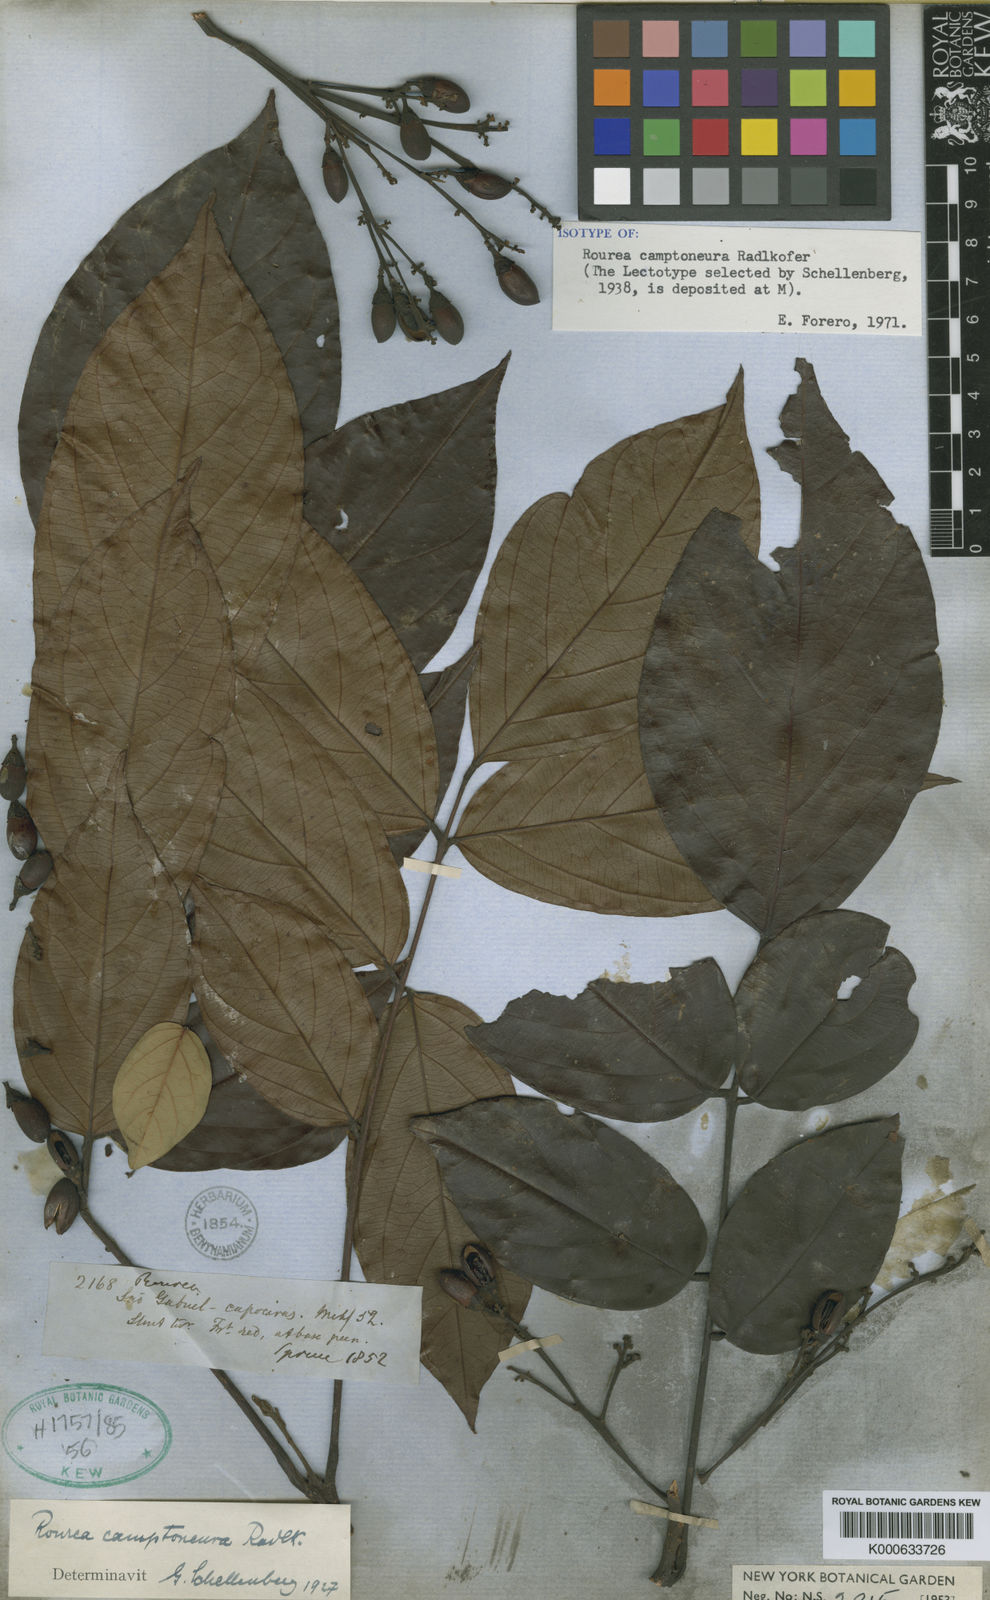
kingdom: Plantae
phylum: Tracheophyta
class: Magnoliopsida
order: Oxalidales
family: Connaraceae
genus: Rourea
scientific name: Rourea camptoneura
